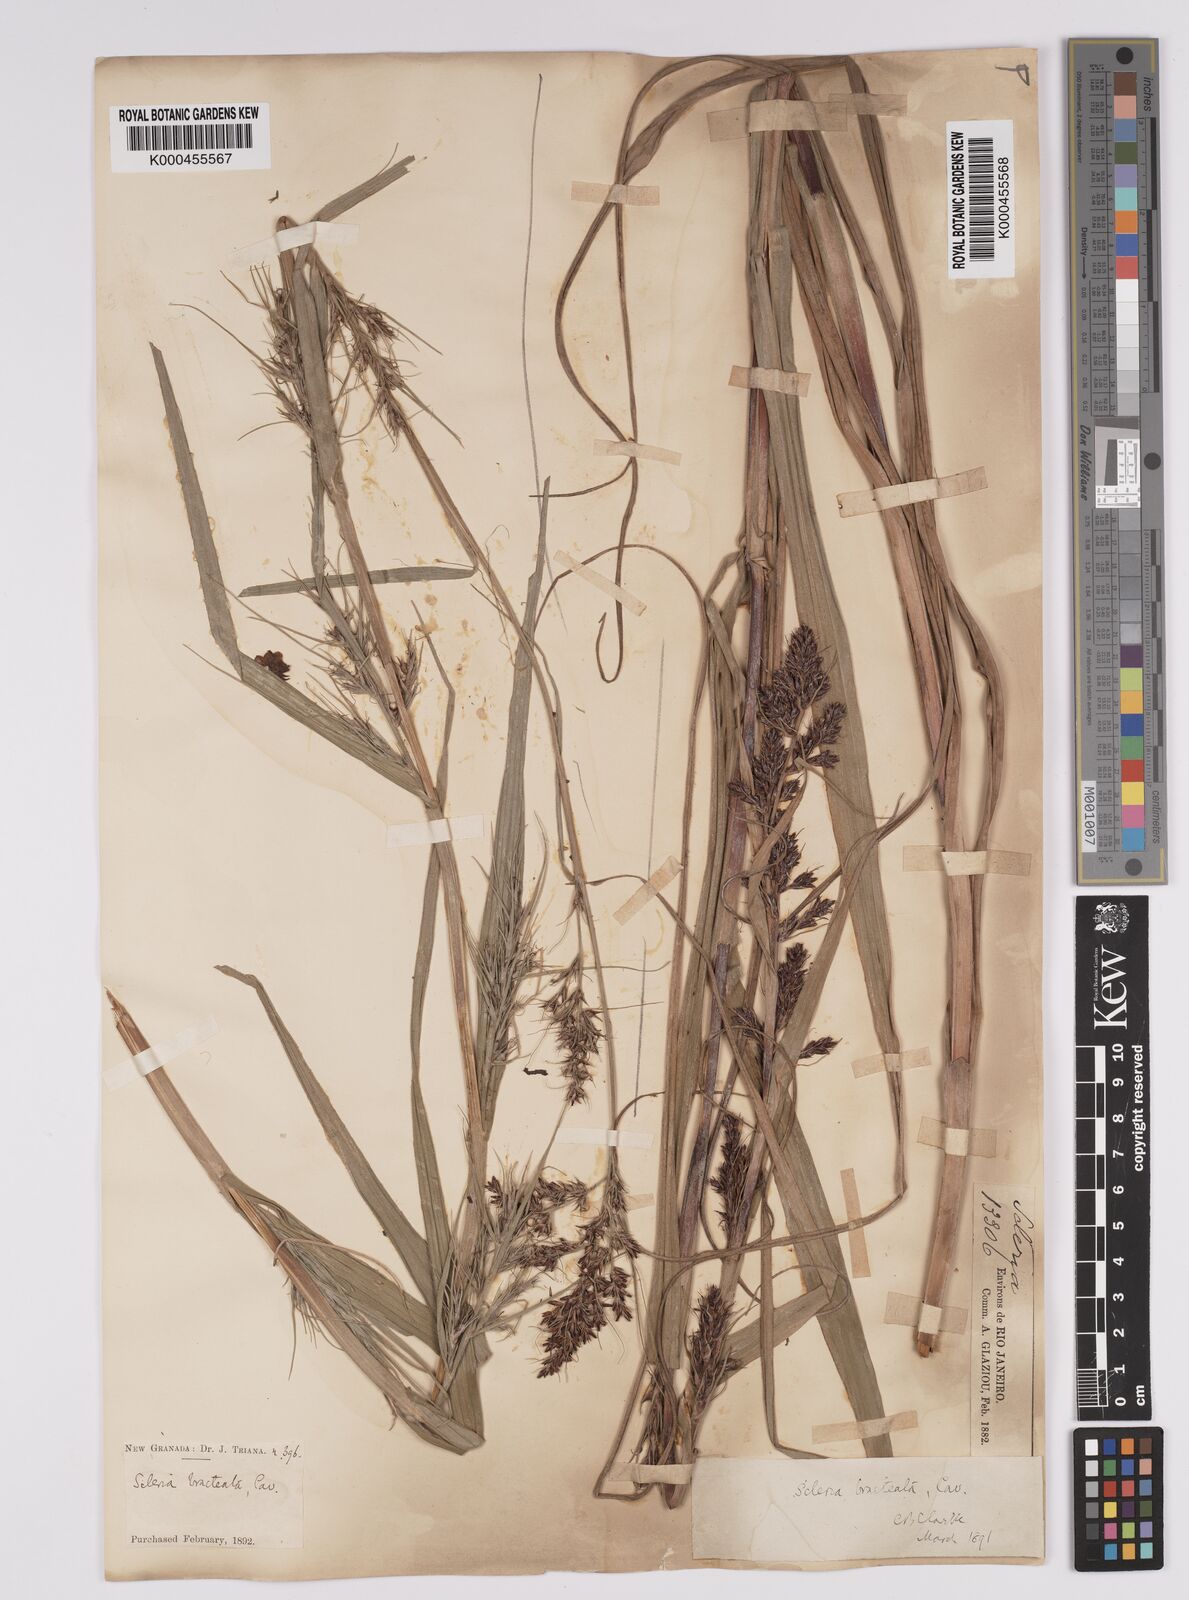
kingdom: Plantae
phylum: Tracheophyta
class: Liliopsida
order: Poales
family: Cyperaceae
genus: Scleria
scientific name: Scleria bracteata
